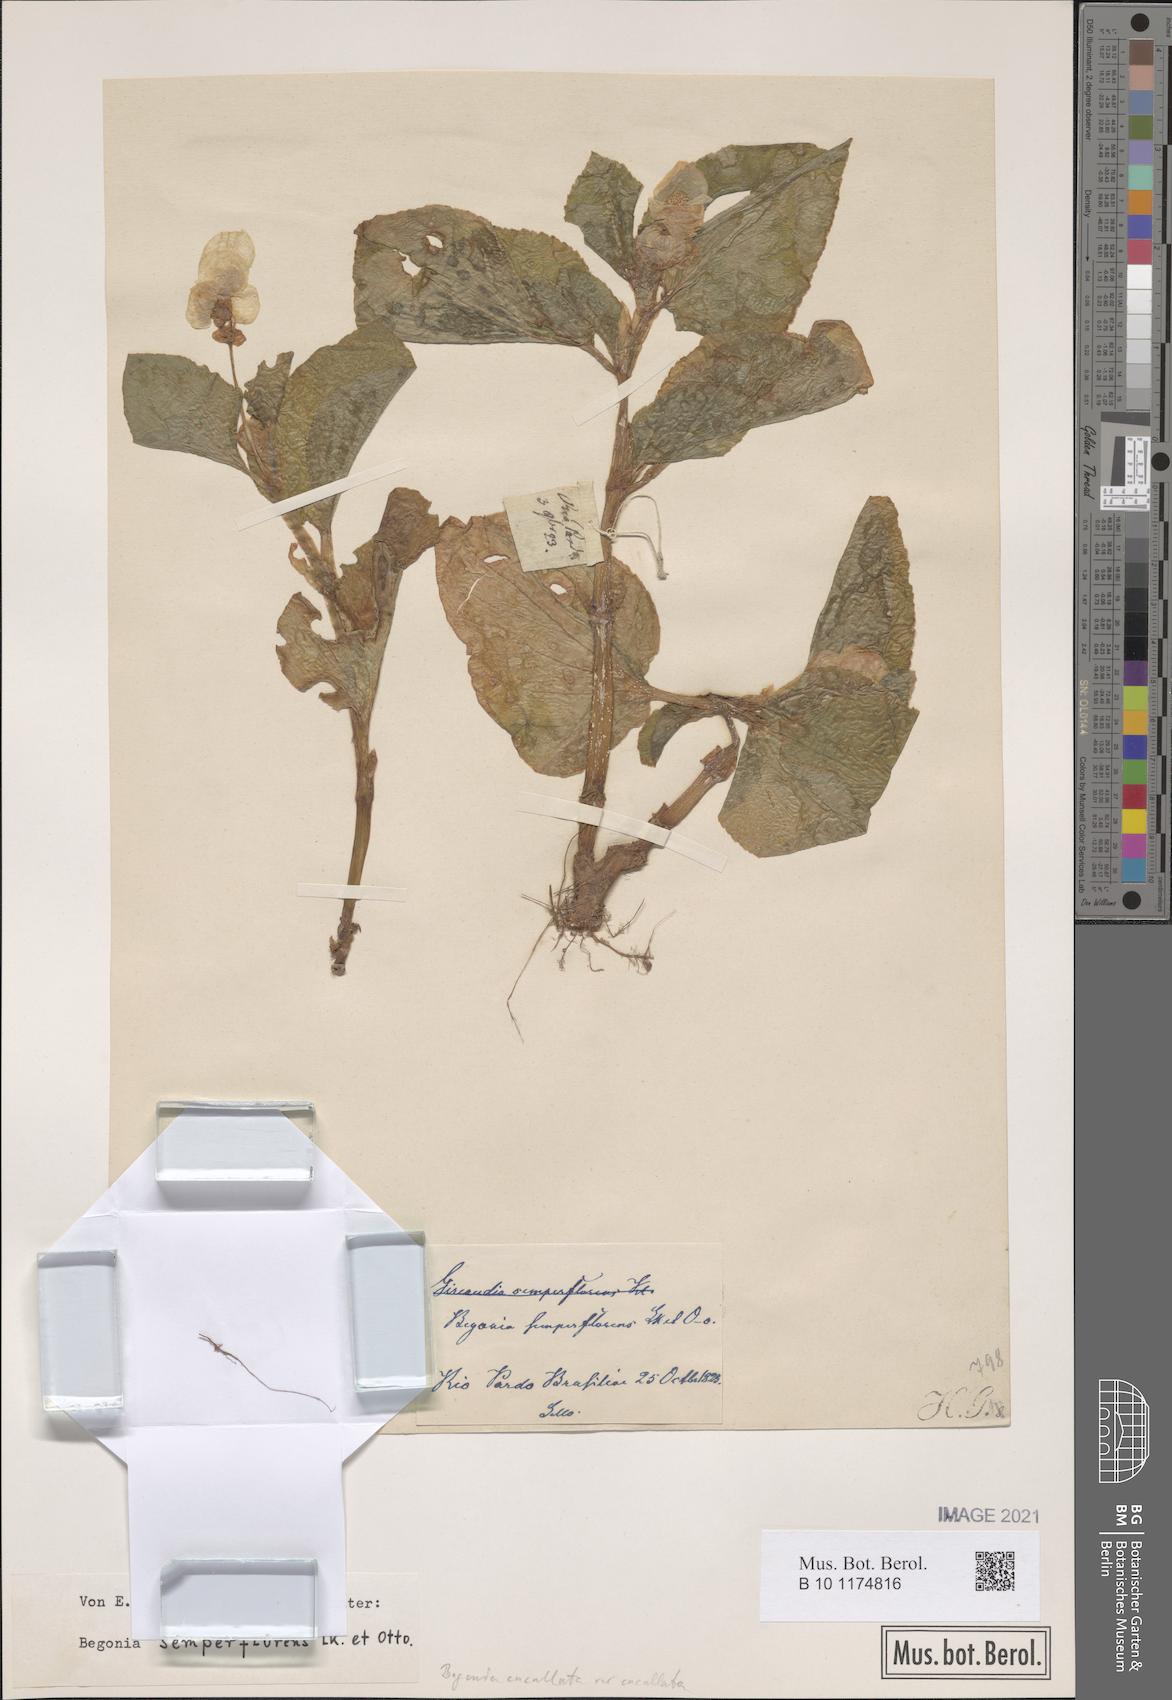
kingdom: Plantae
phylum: Tracheophyta
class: Magnoliopsida
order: Cucurbitales
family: Begoniaceae
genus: Begonia
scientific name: Begonia cucullata
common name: Clubbed begonia
